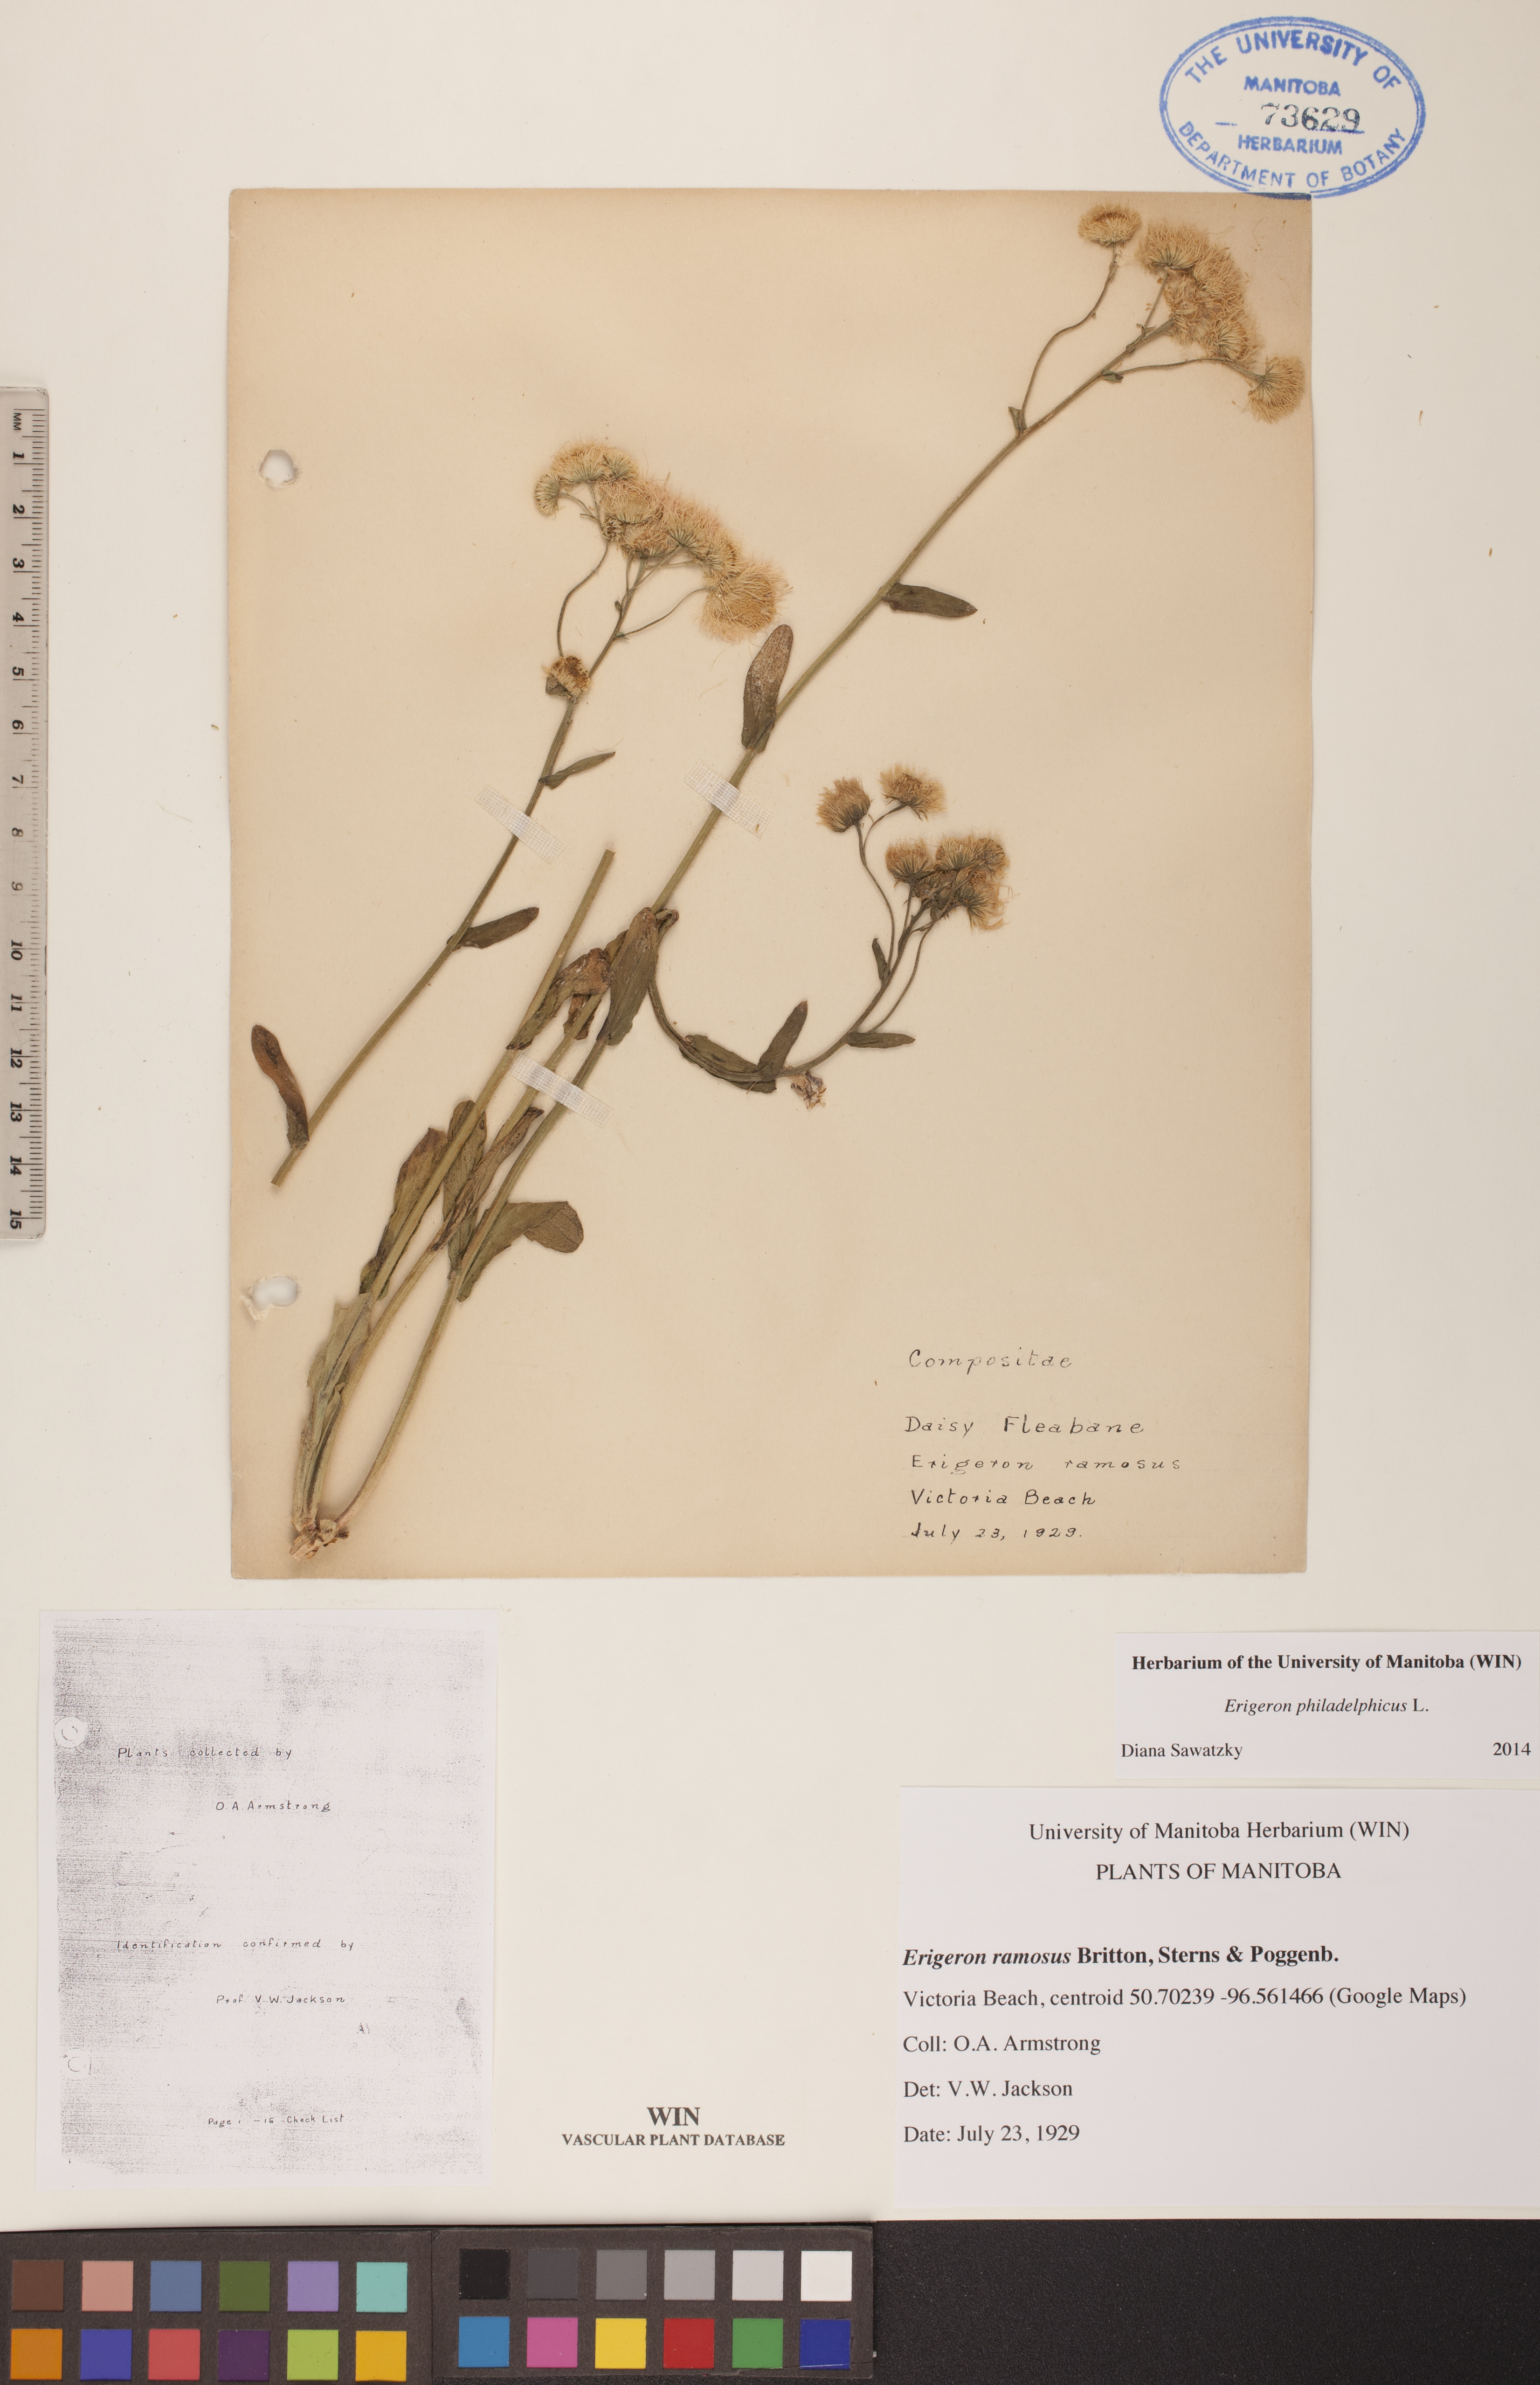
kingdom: Plantae
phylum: Tracheophyta
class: Magnoliopsida
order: Asterales
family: Asteraceae
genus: Erigeron
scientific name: Erigeron philadelphicus
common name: Robin's-plantain
